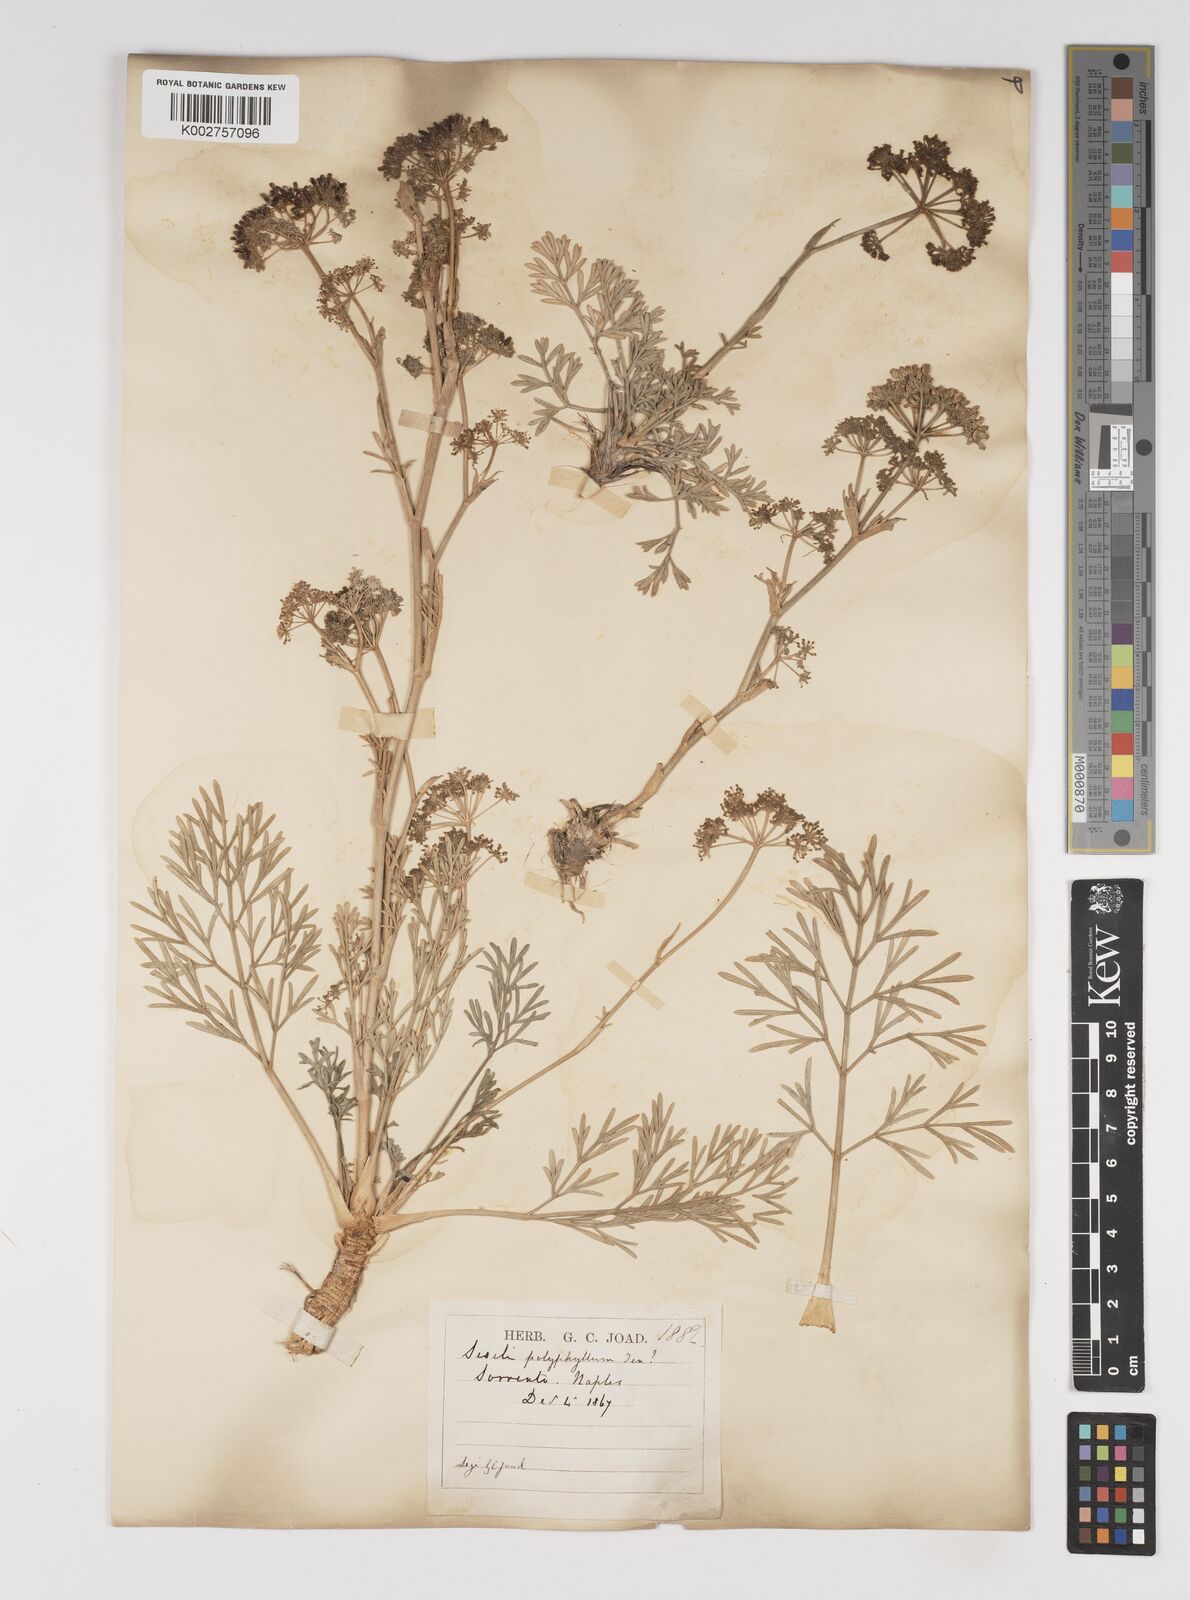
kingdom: Plantae
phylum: Tracheophyta
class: Magnoliopsida
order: Apiales
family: Apiaceae
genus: Seseli
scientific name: Seseli montanum
